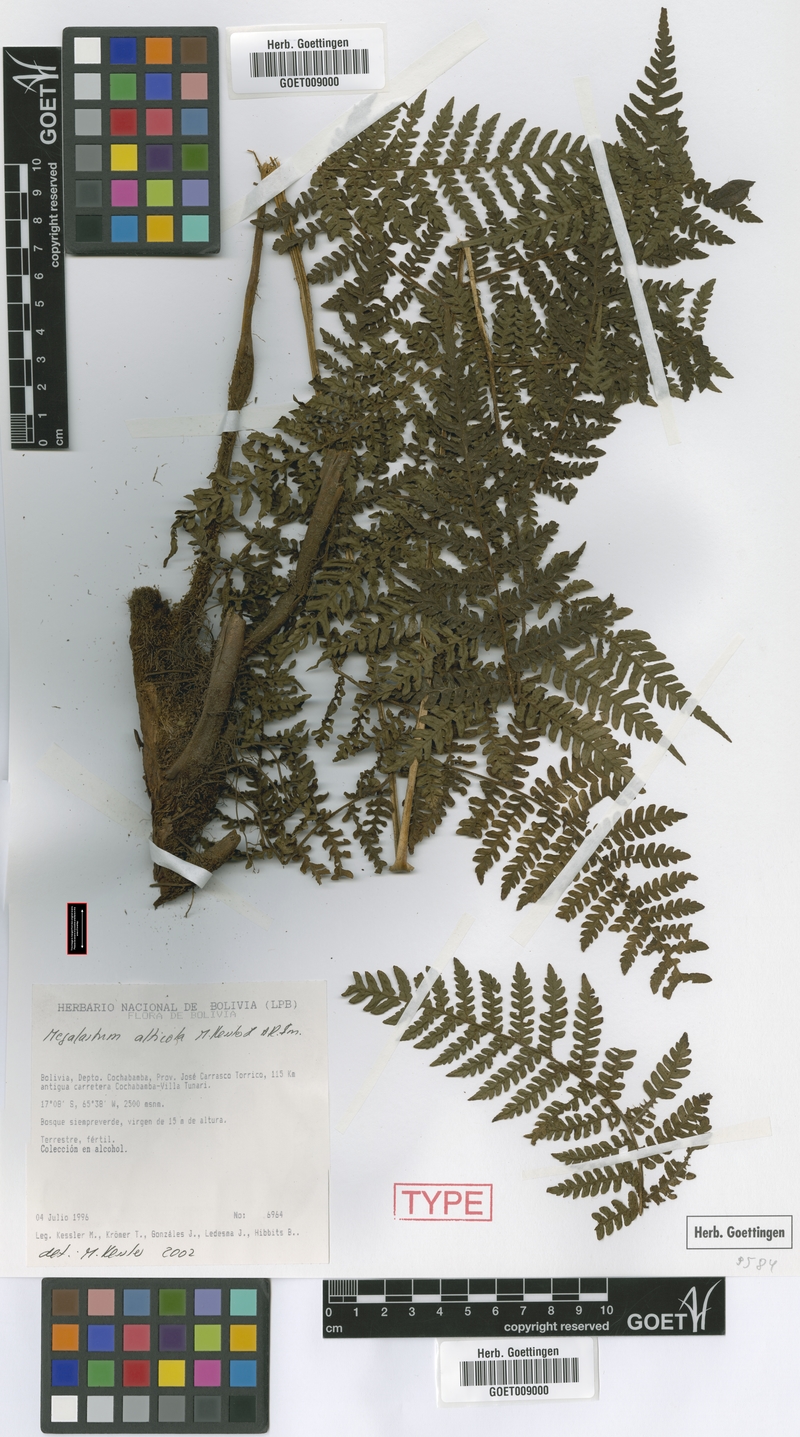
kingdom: Plantae
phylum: Tracheophyta
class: Polypodiopsida
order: Polypodiales
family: Dryopteridaceae
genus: Megalastrum
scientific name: Megalastrum alticola
